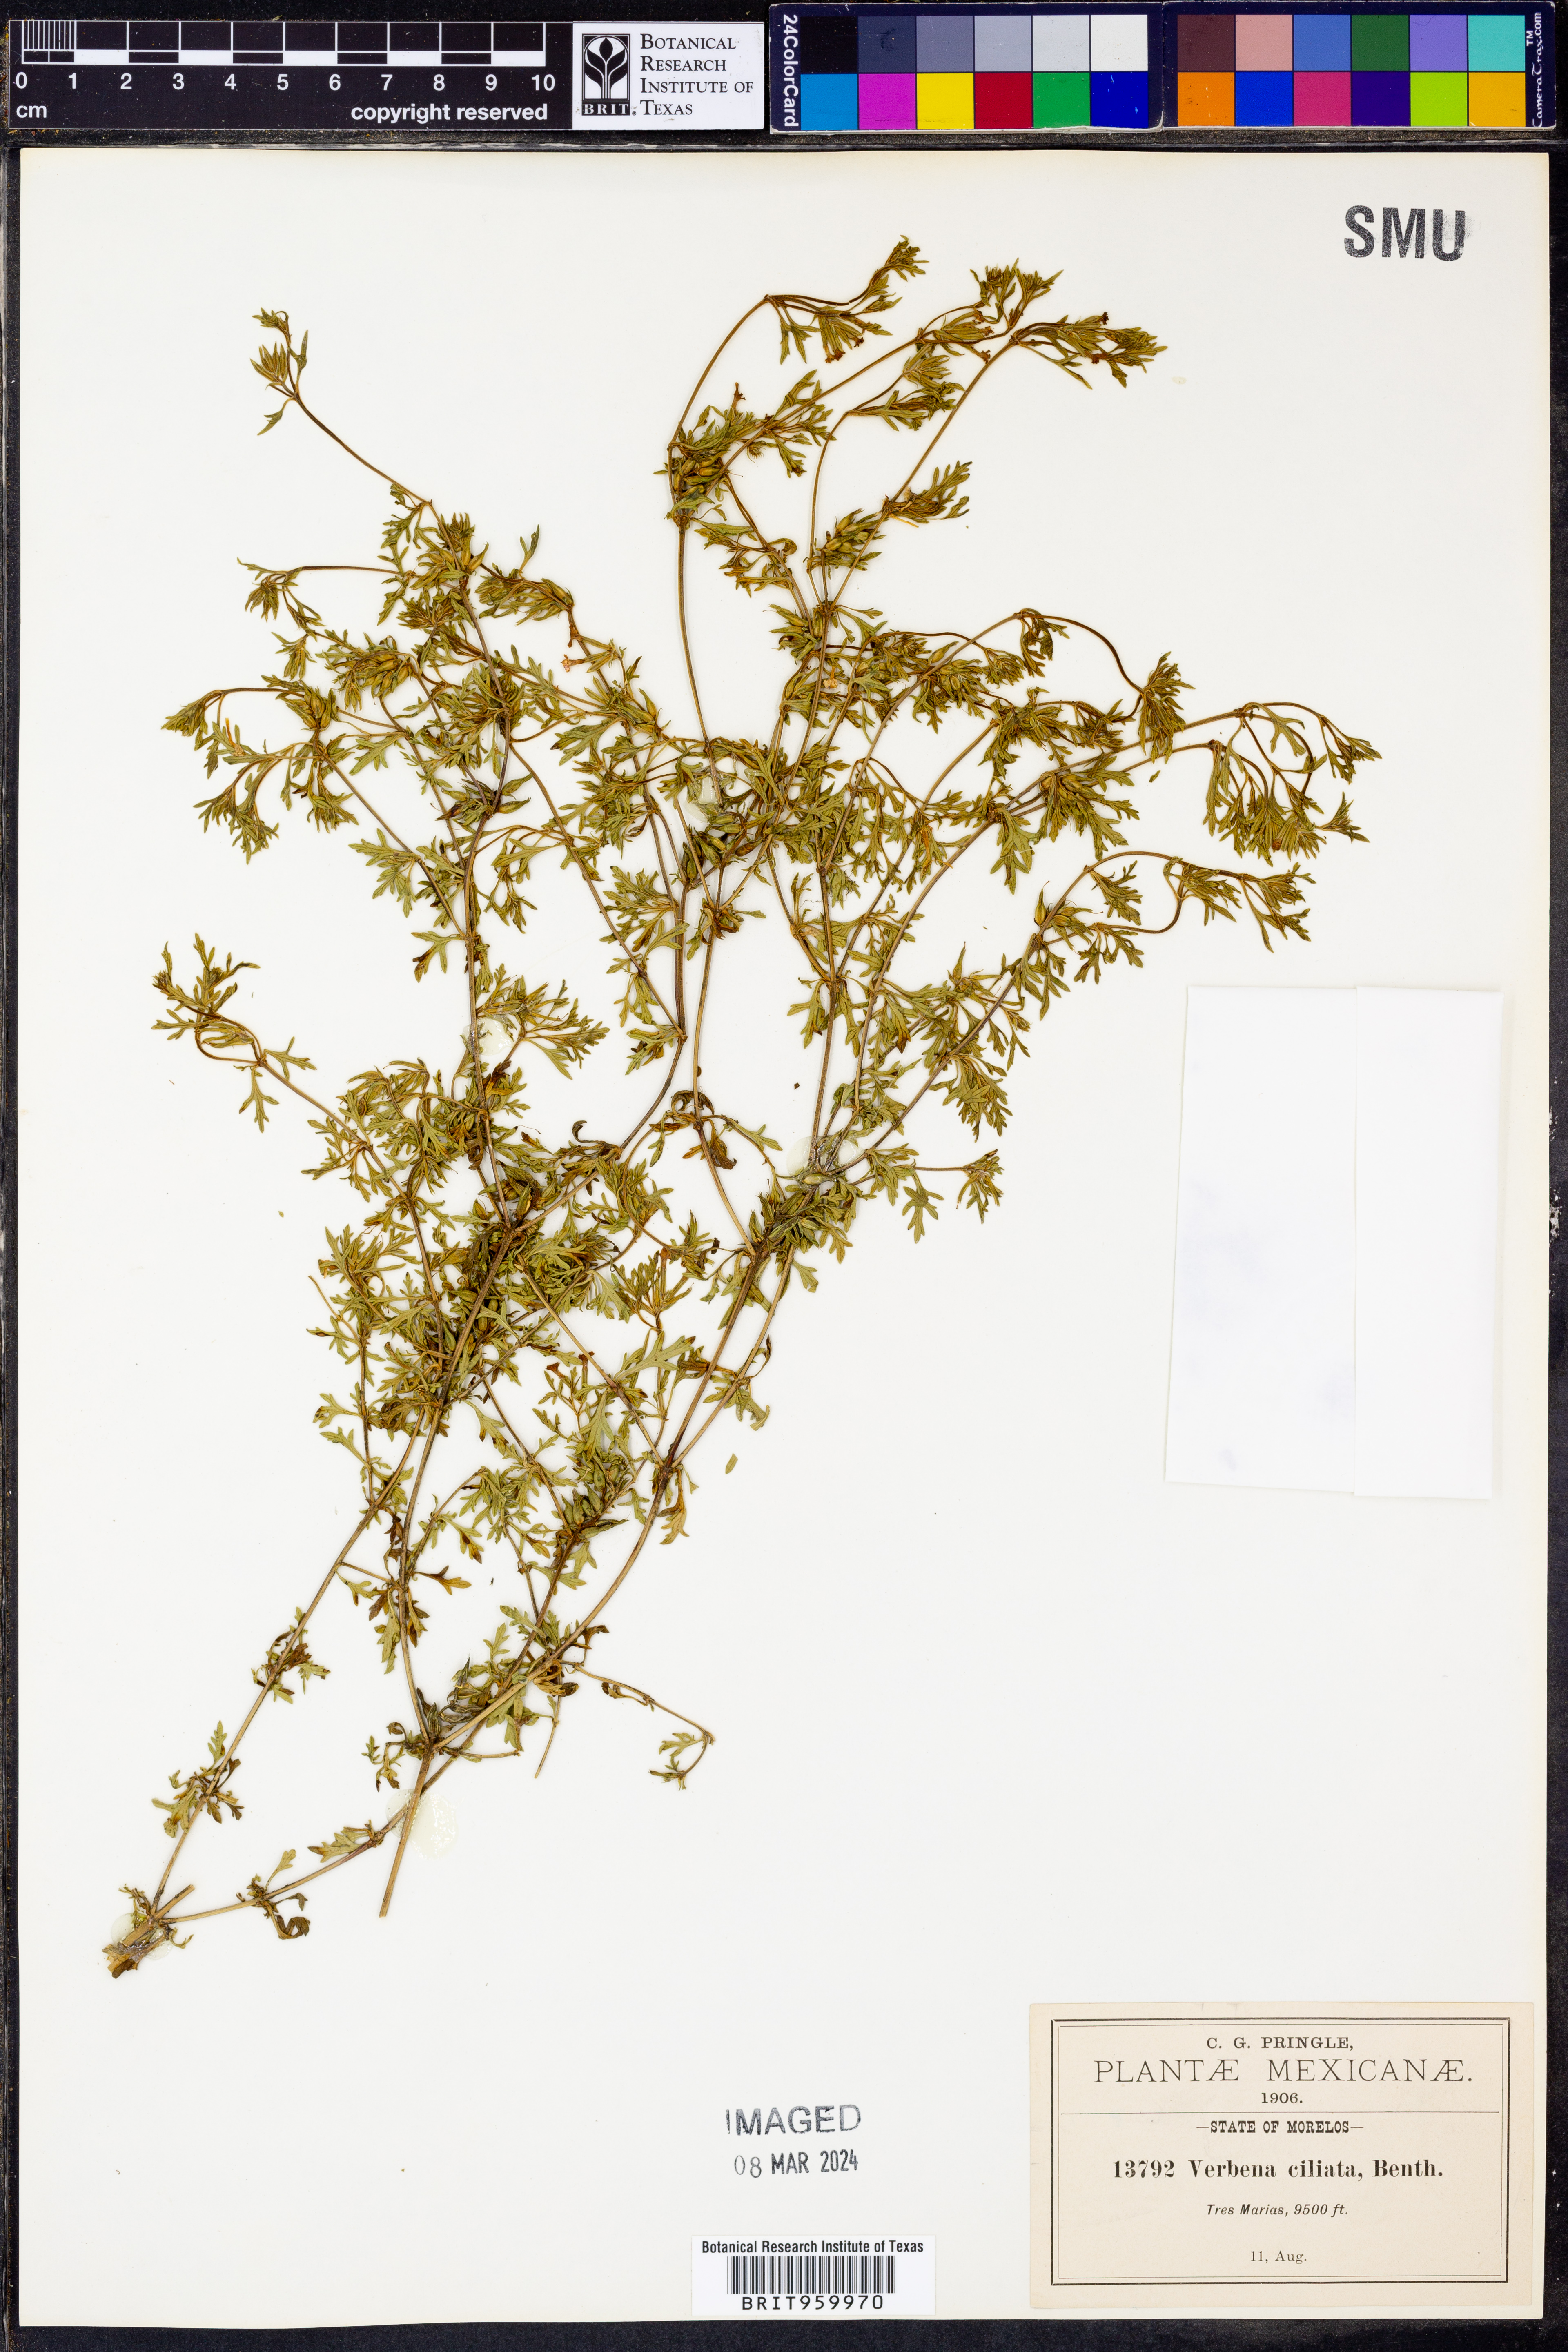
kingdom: Plantae
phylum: Tracheophyta
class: Magnoliopsida
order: Lamiales
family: Verbenaceae
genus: Verbena
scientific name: Verbena teucriifolia
